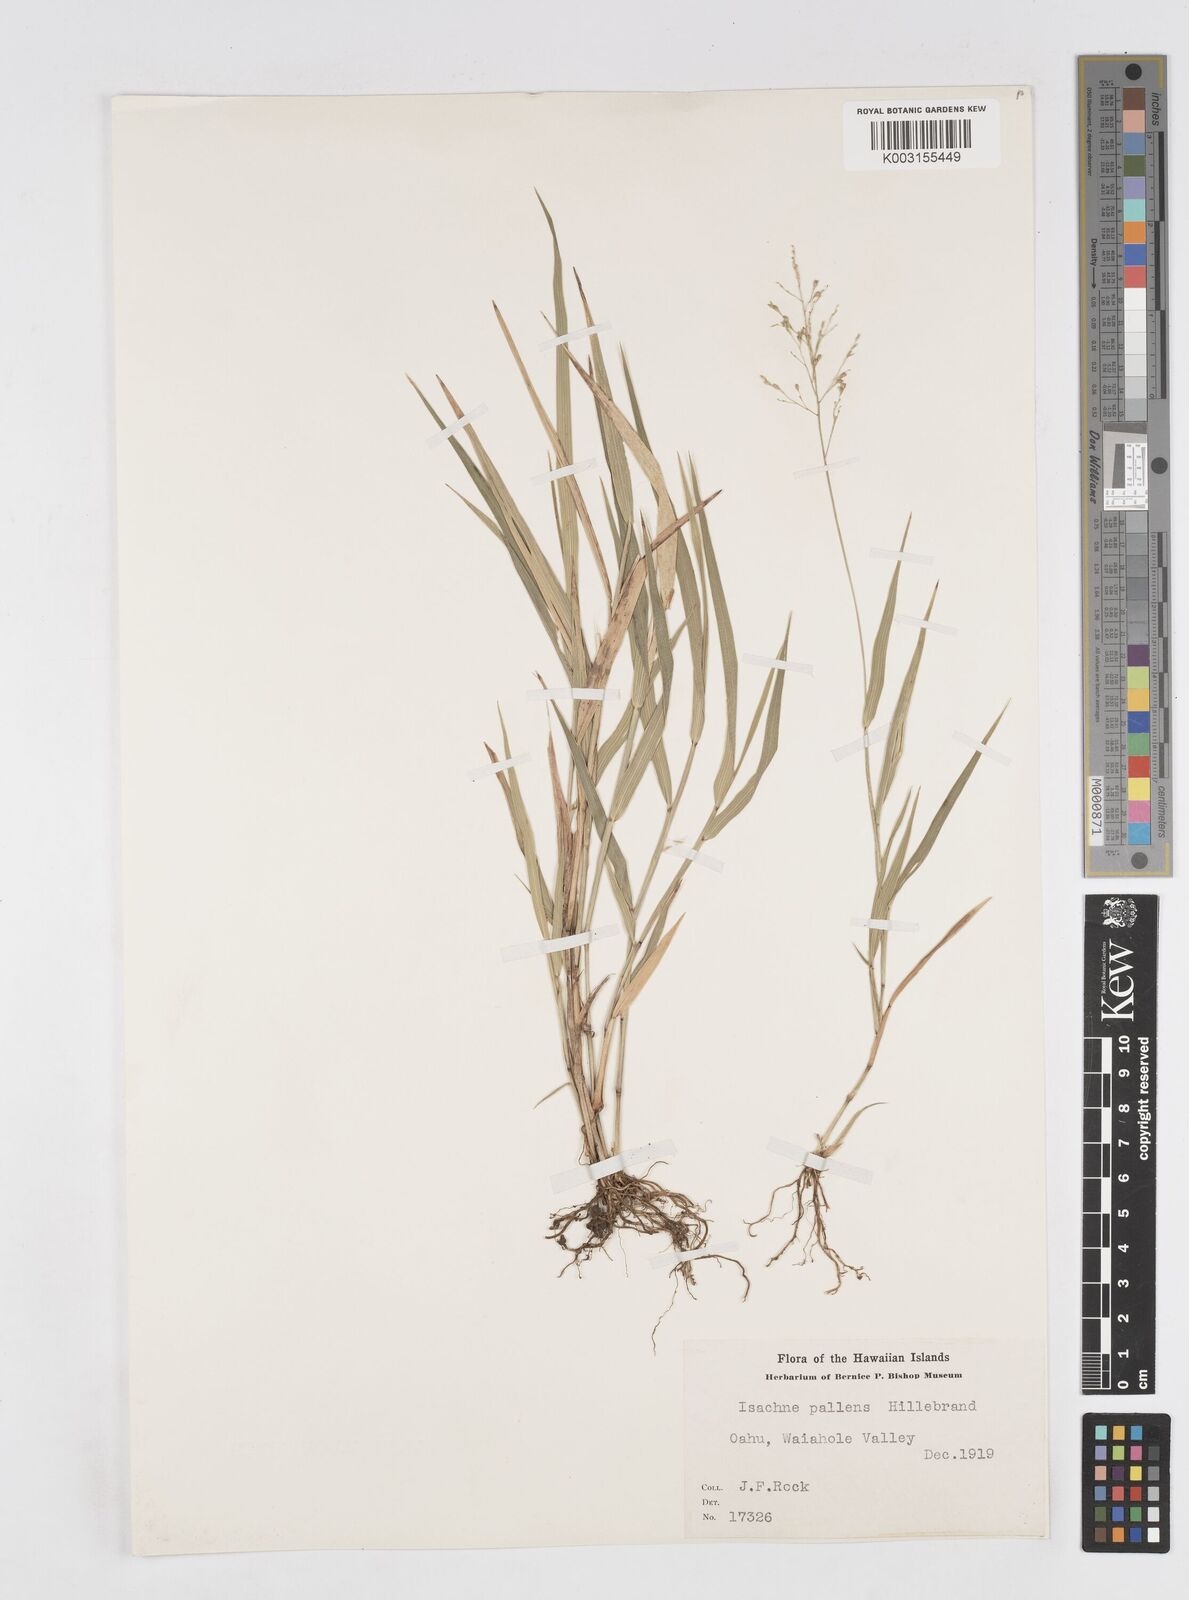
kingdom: Plantae
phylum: Tracheophyta
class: Liliopsida
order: Poales
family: Poaceae
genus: Isachne
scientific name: Isachne pallens
